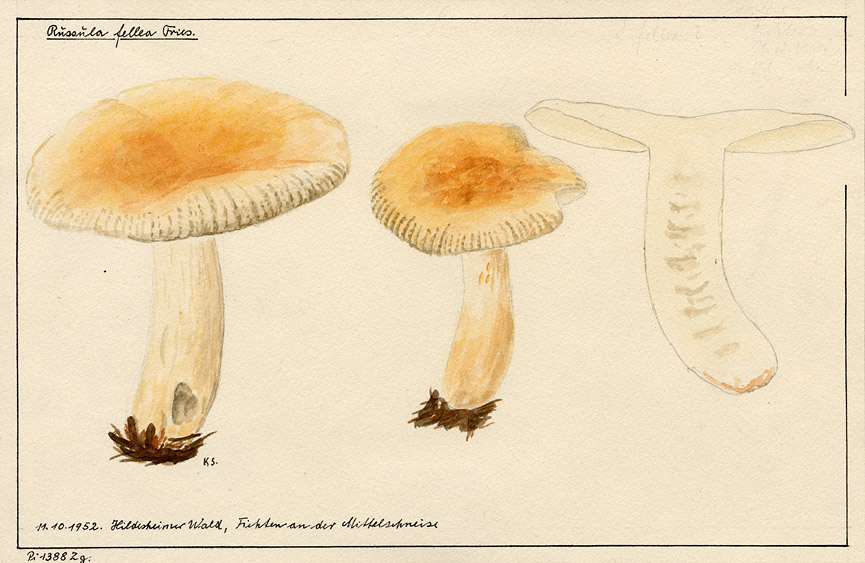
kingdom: Fungi
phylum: Basidiomycota
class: Agaricomycetes
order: Russulales
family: Russulaceae
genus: Russula
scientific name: Russula fellea
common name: Geranium brittlegill
